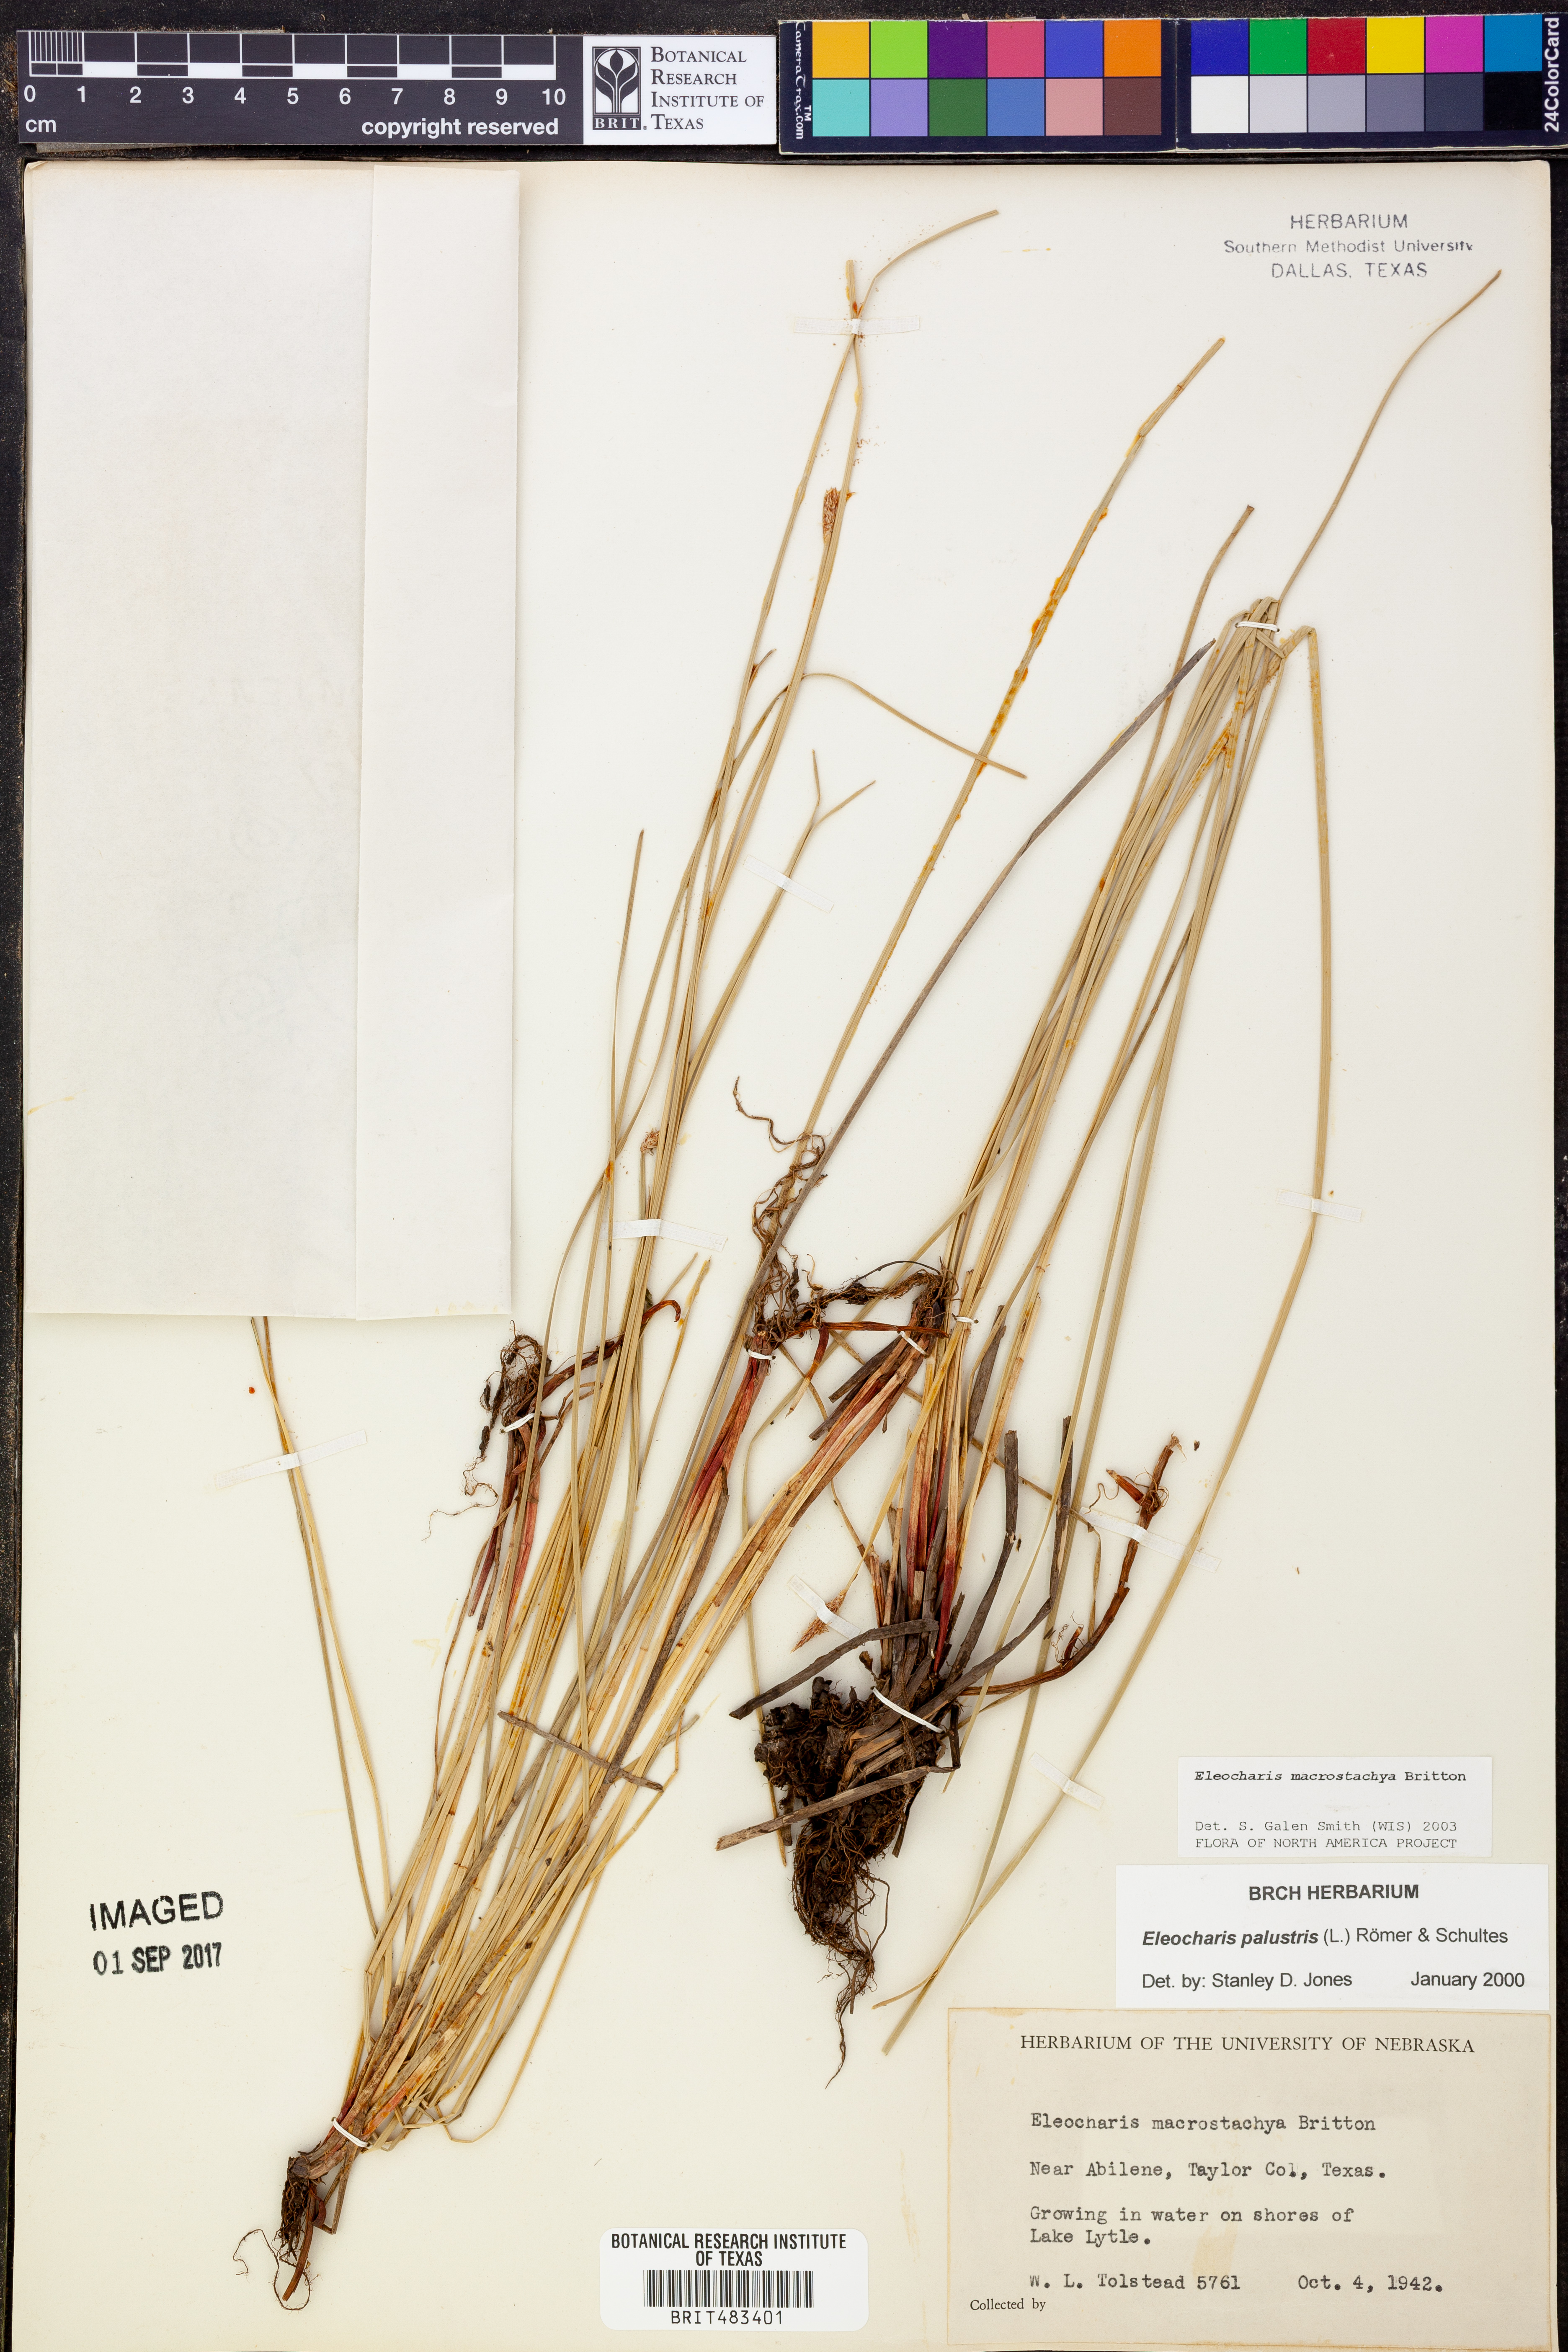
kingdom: Plantae
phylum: Tracheophyta
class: Liliopsida
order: Poales
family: Cyperaceae
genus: Eleocharis
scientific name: Eleocharis macrostachya
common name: Pale spikerush
